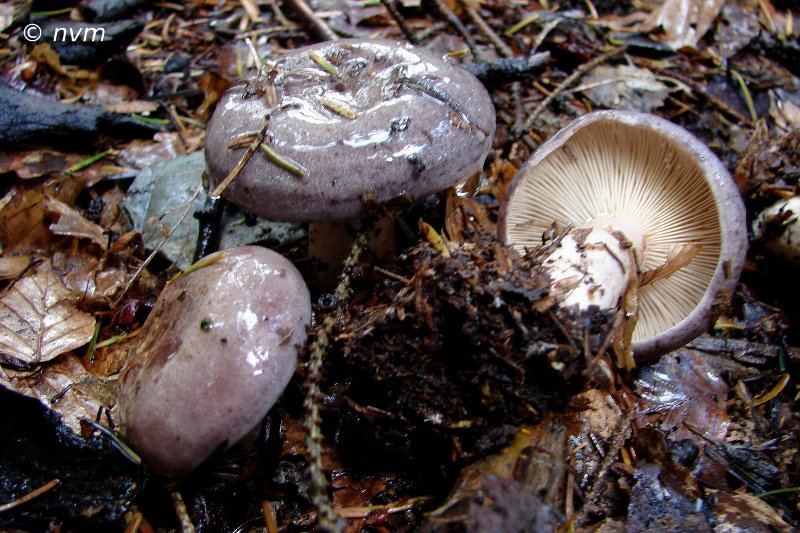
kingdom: Fungi
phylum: Basidiomycota
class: Agaricomycetes
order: Russulales
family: Russulaceae
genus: Lactarius
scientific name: Lactarius trivialis
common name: nordisk mælkehat
